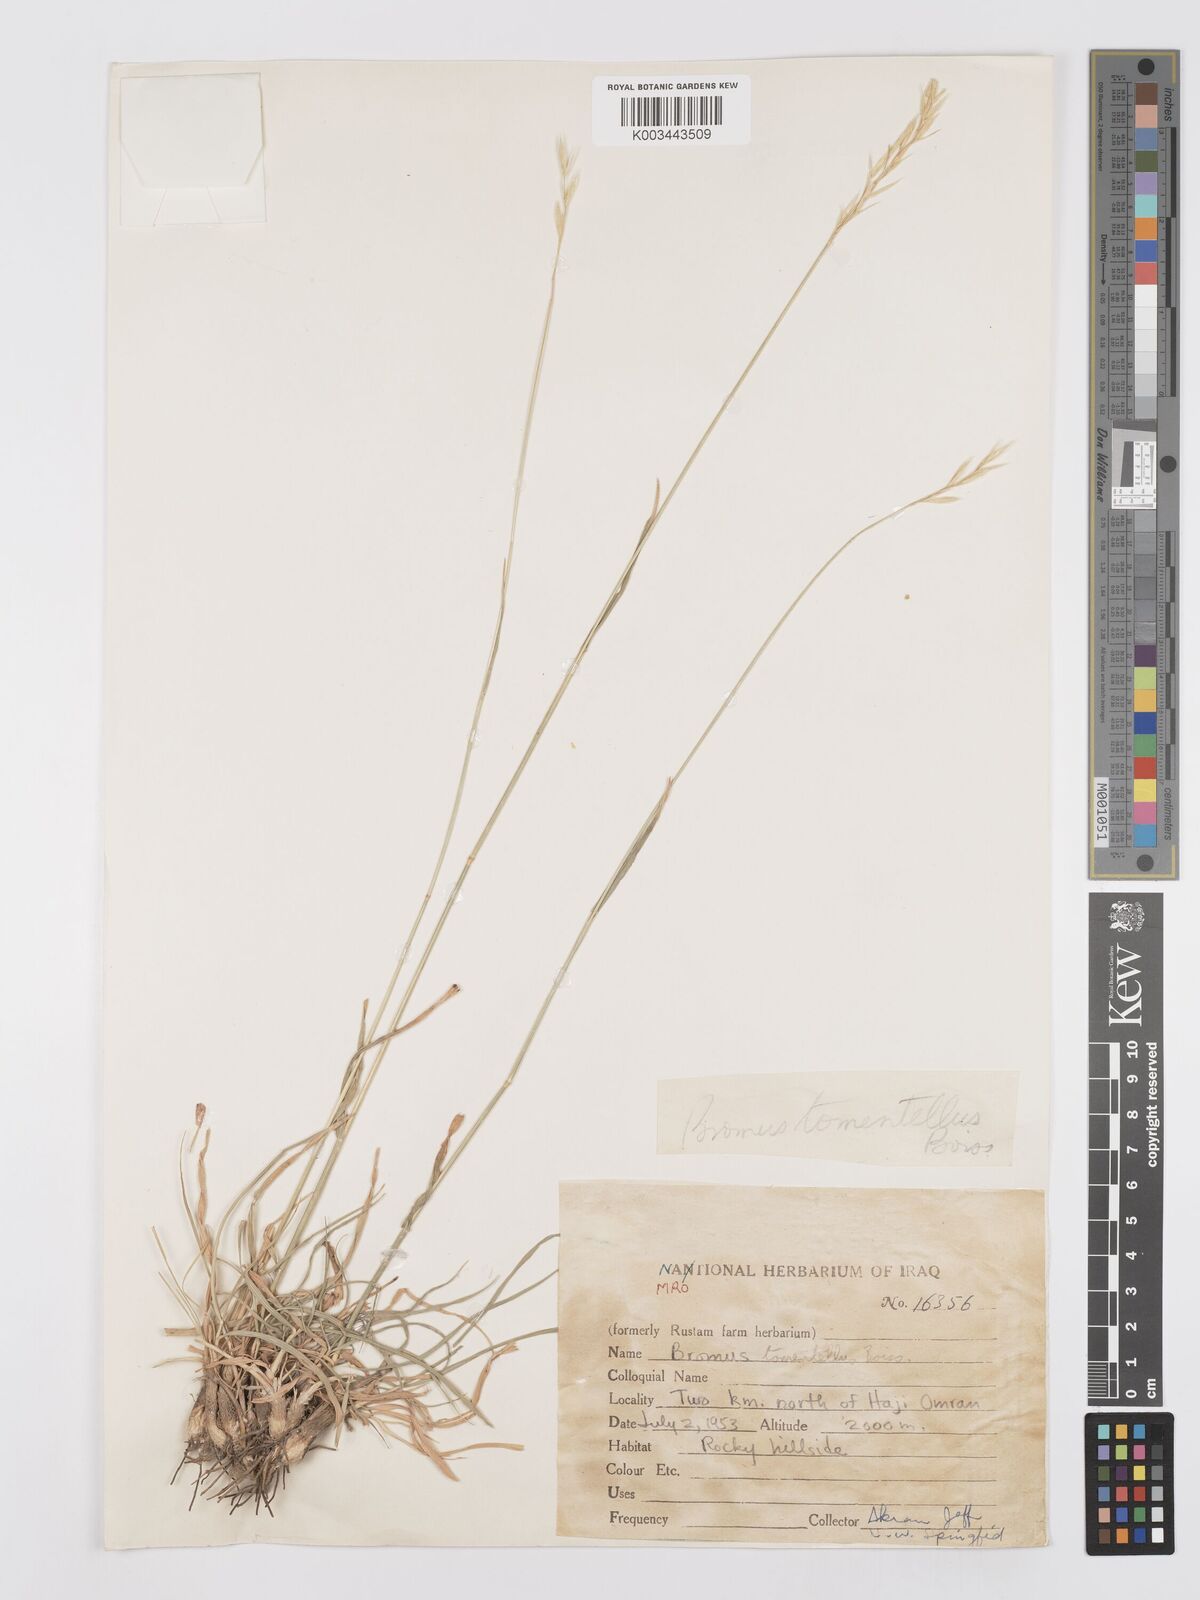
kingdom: Plantae
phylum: Tracheophyta
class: Liliopsida
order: Poales
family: Poaceae
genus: Bromus
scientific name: Bromus tomentellus
